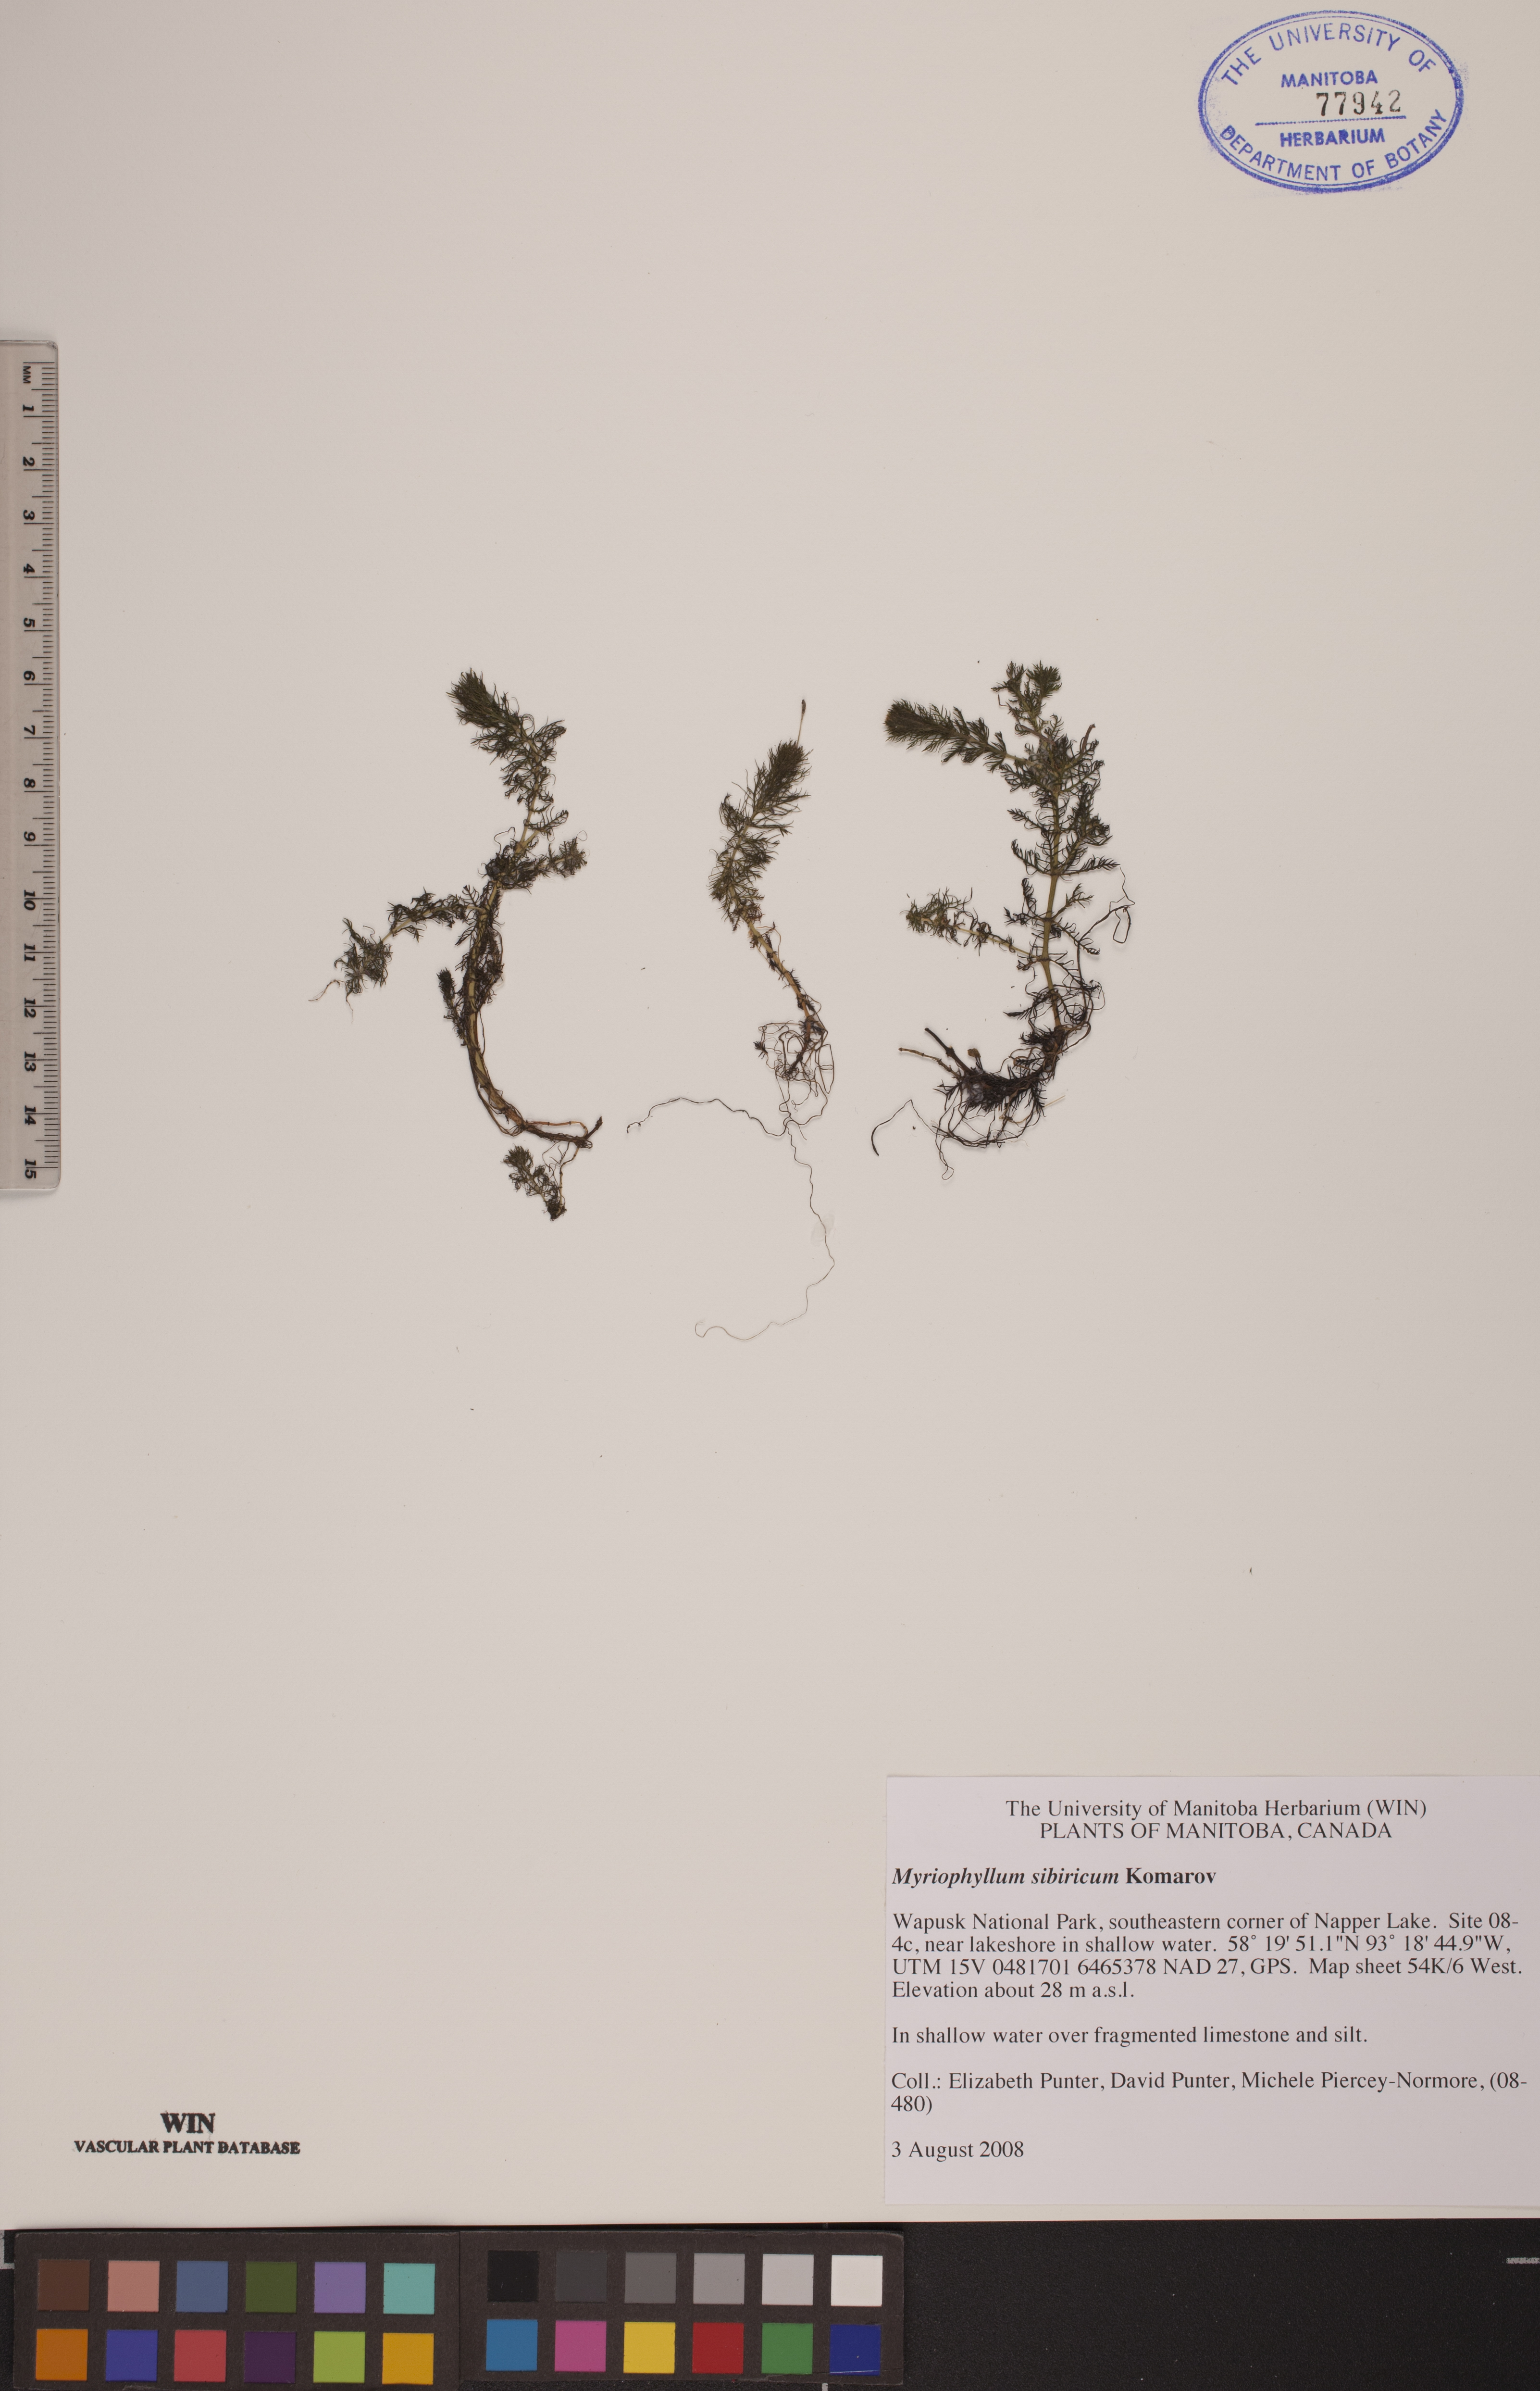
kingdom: Plantae
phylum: Tracheophyta
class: Magnoliopsida
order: Saxifragales
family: Haloragaceae
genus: Myriophyllum
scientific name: Myriophyllum sibiricum
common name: Siberian water-milfoil
